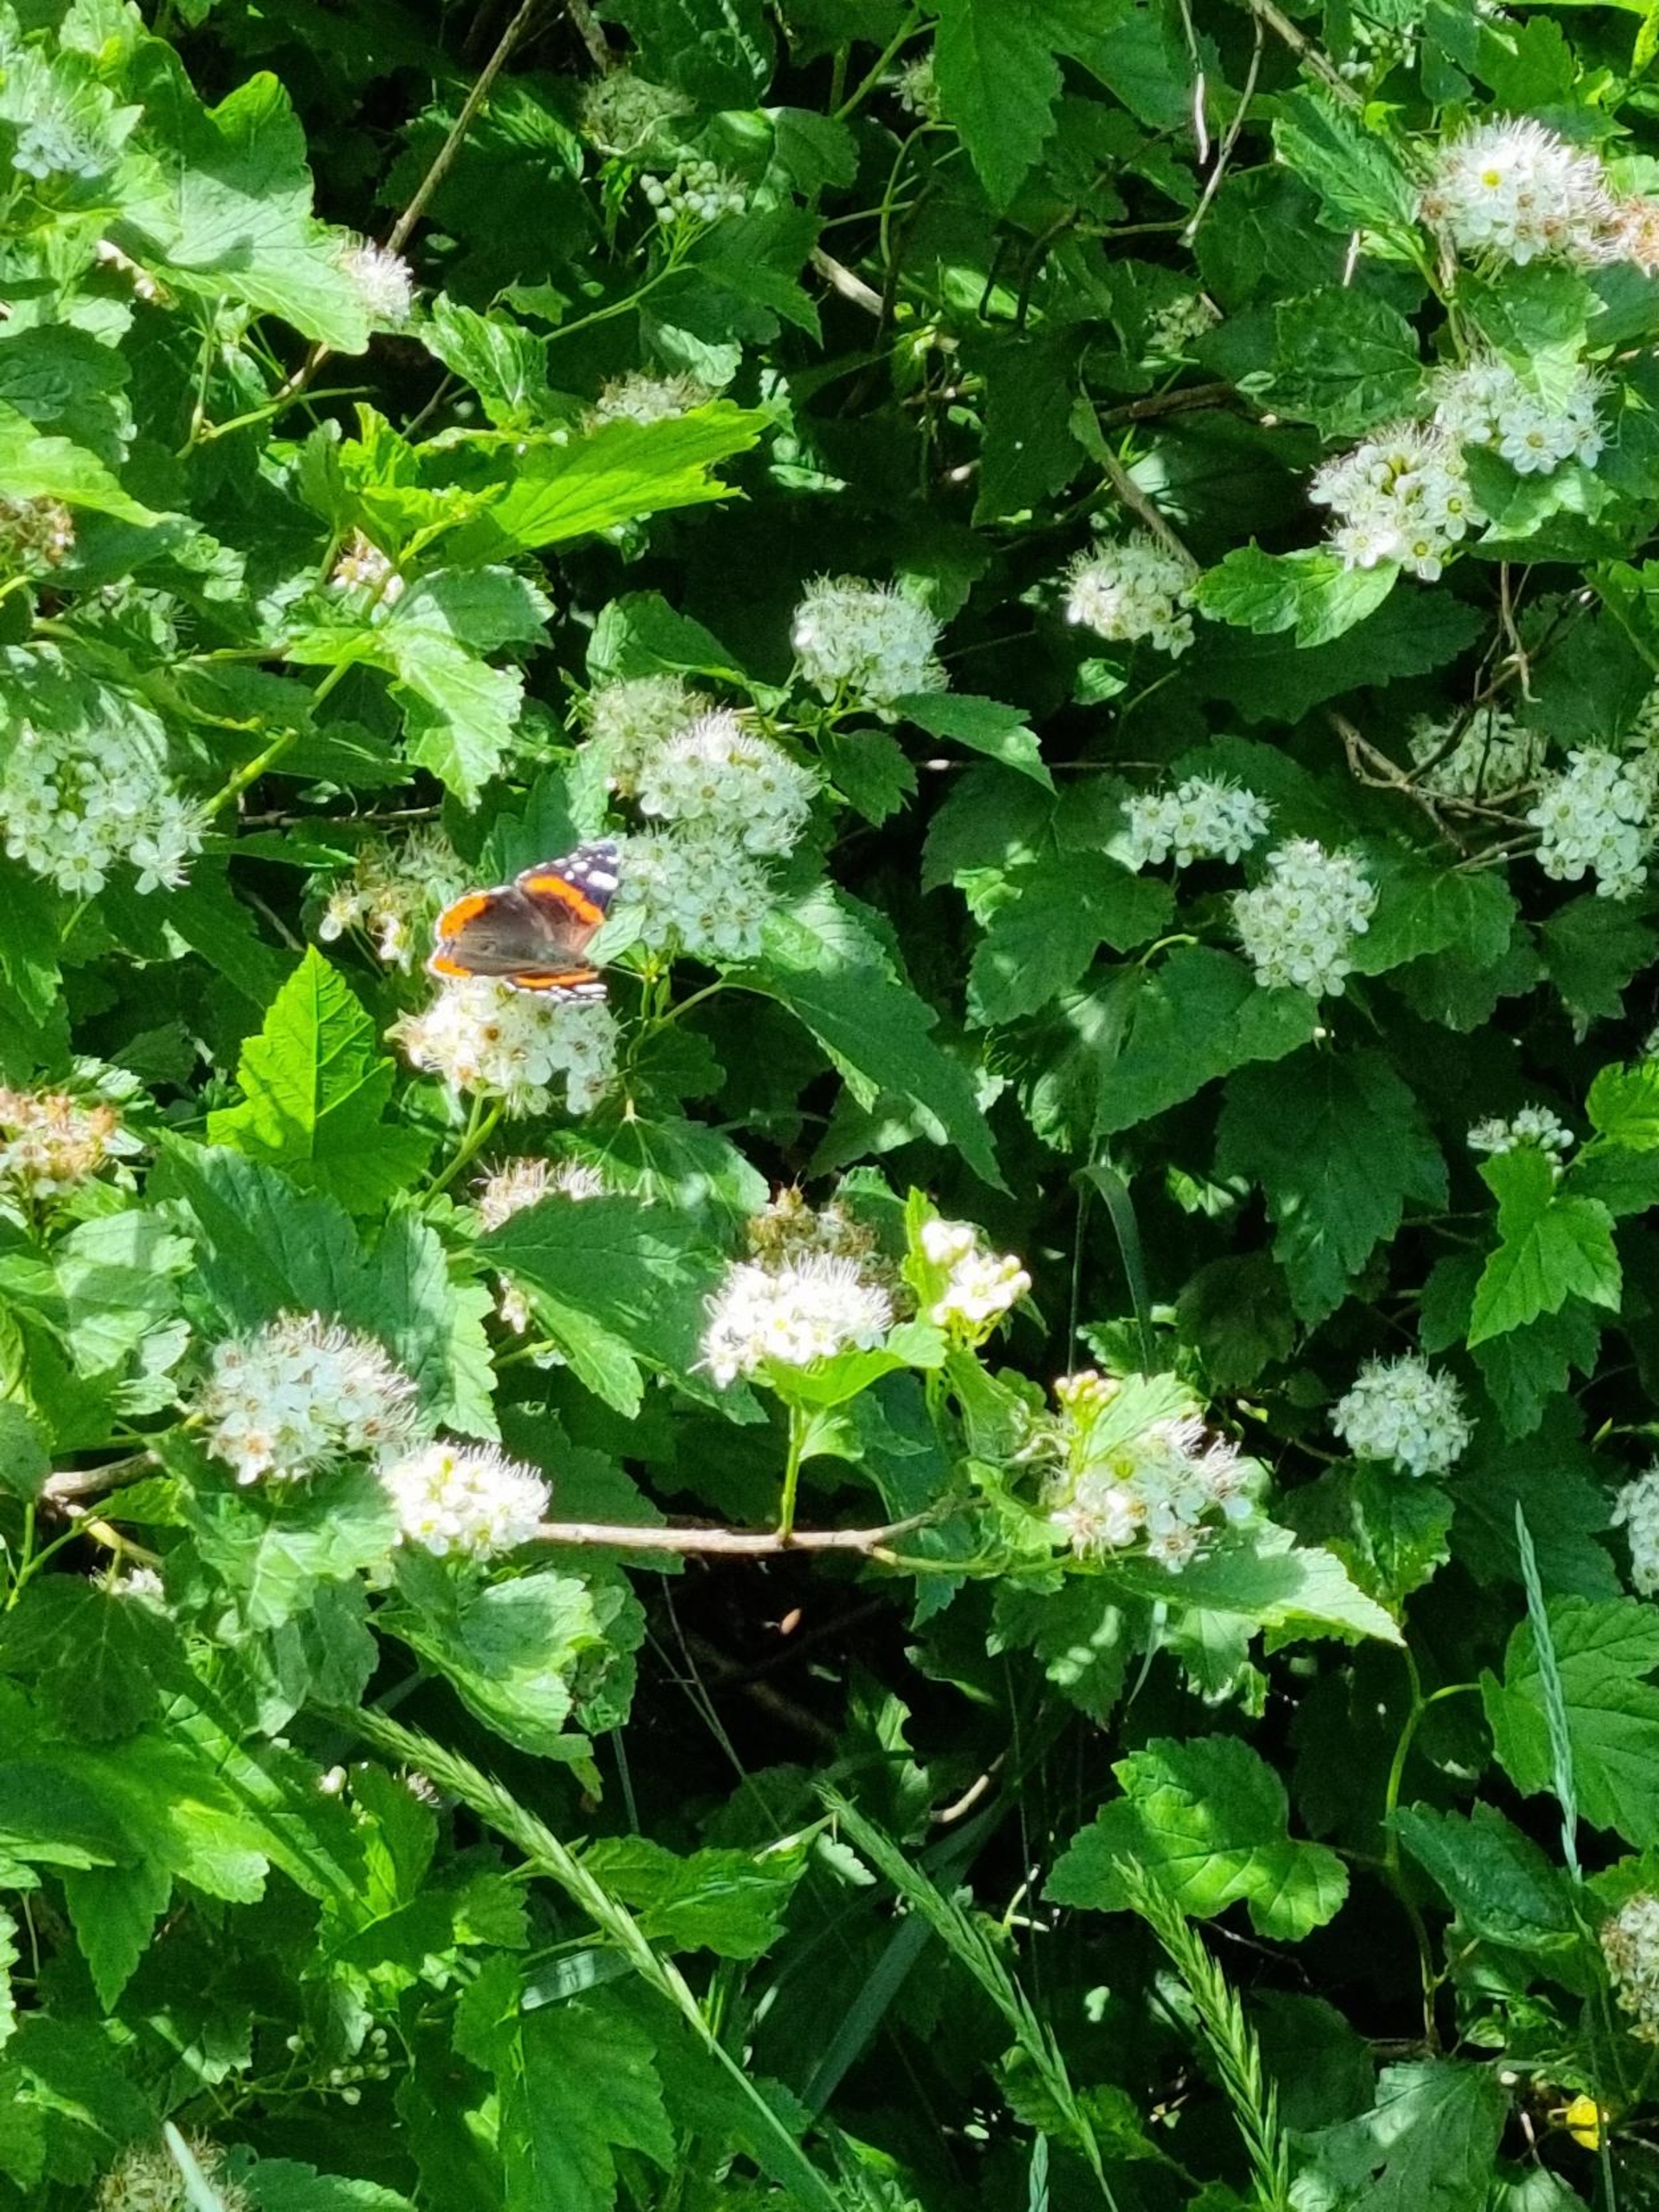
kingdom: Animalia
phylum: Arthropoda
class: Insecta
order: Lepidoptera
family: Nymphalidae
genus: Vanessa
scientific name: Vanessa atalanta
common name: Admiral
